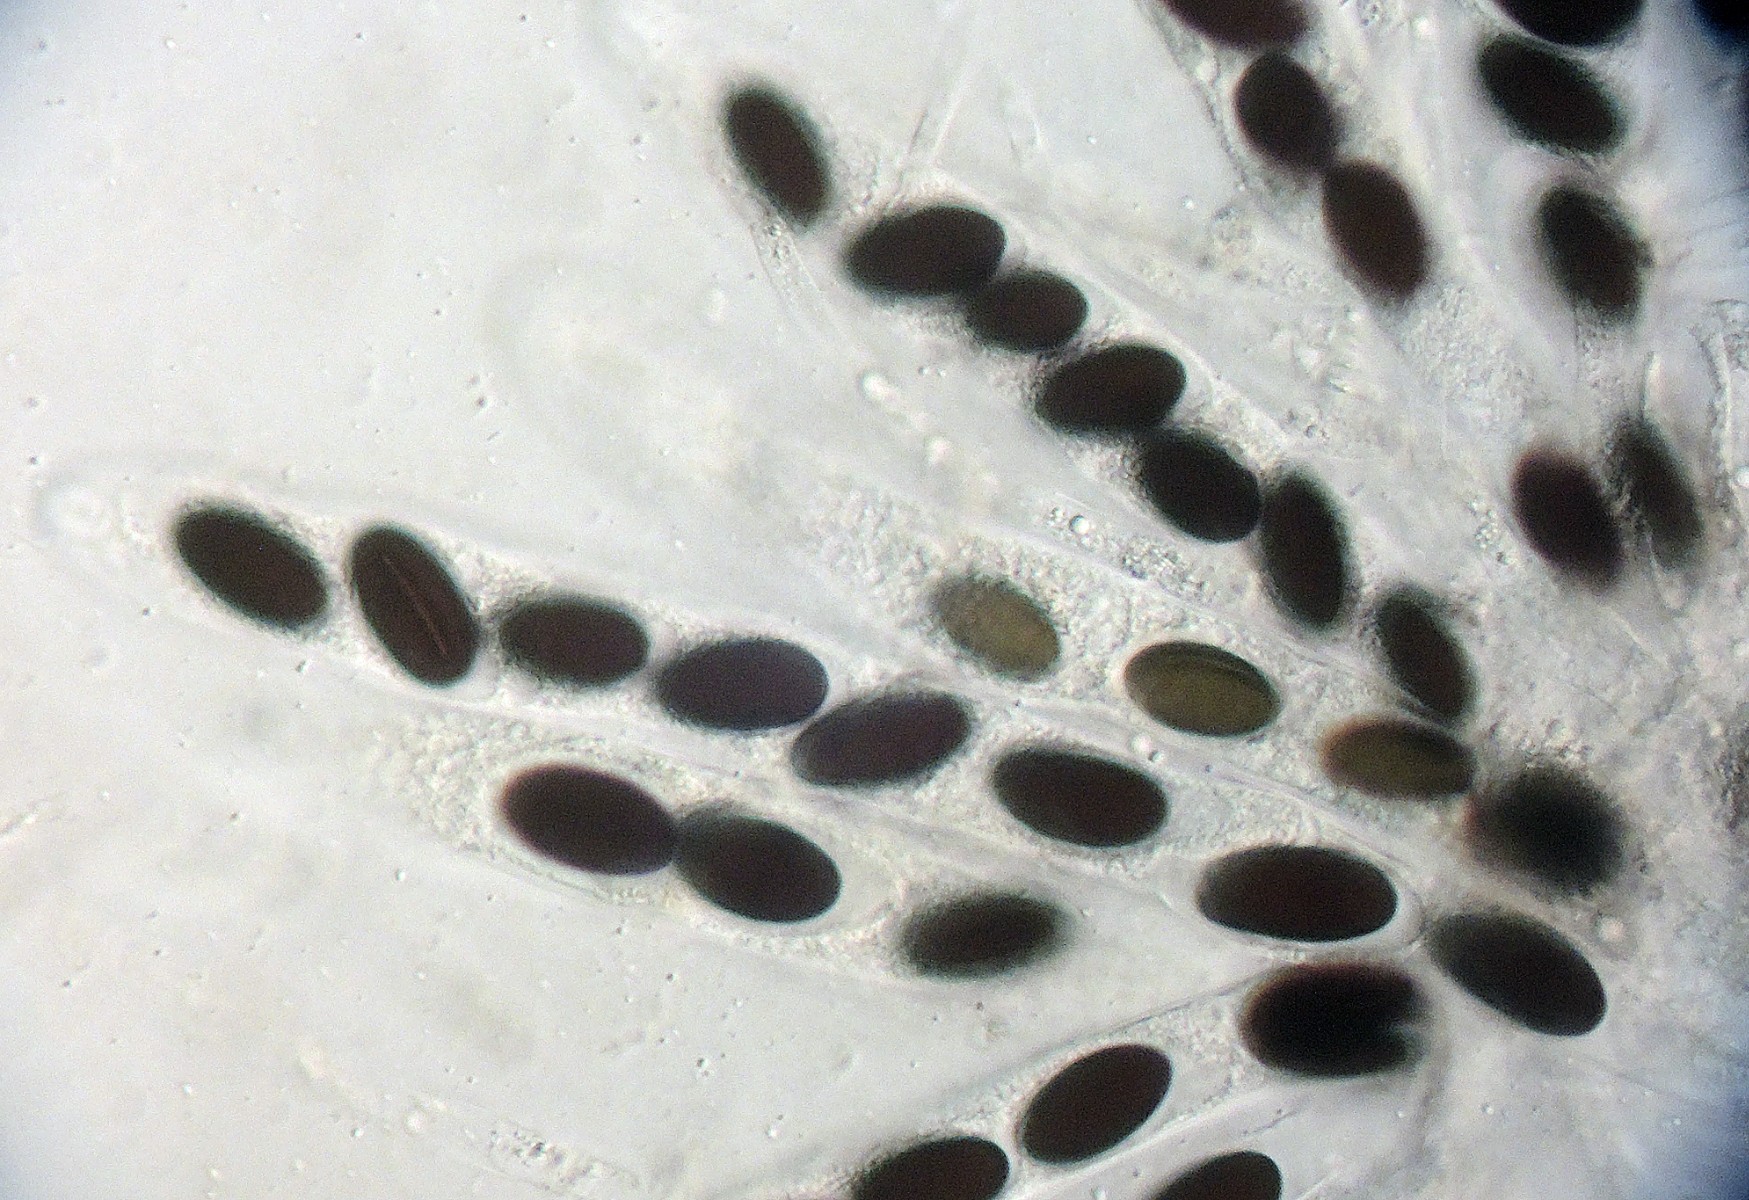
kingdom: Fungi
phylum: Ascomycota
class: Sordariomycetes
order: Xylariales
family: Xylariaceae
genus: Hypocopra
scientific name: Hypocopra brefeldii
